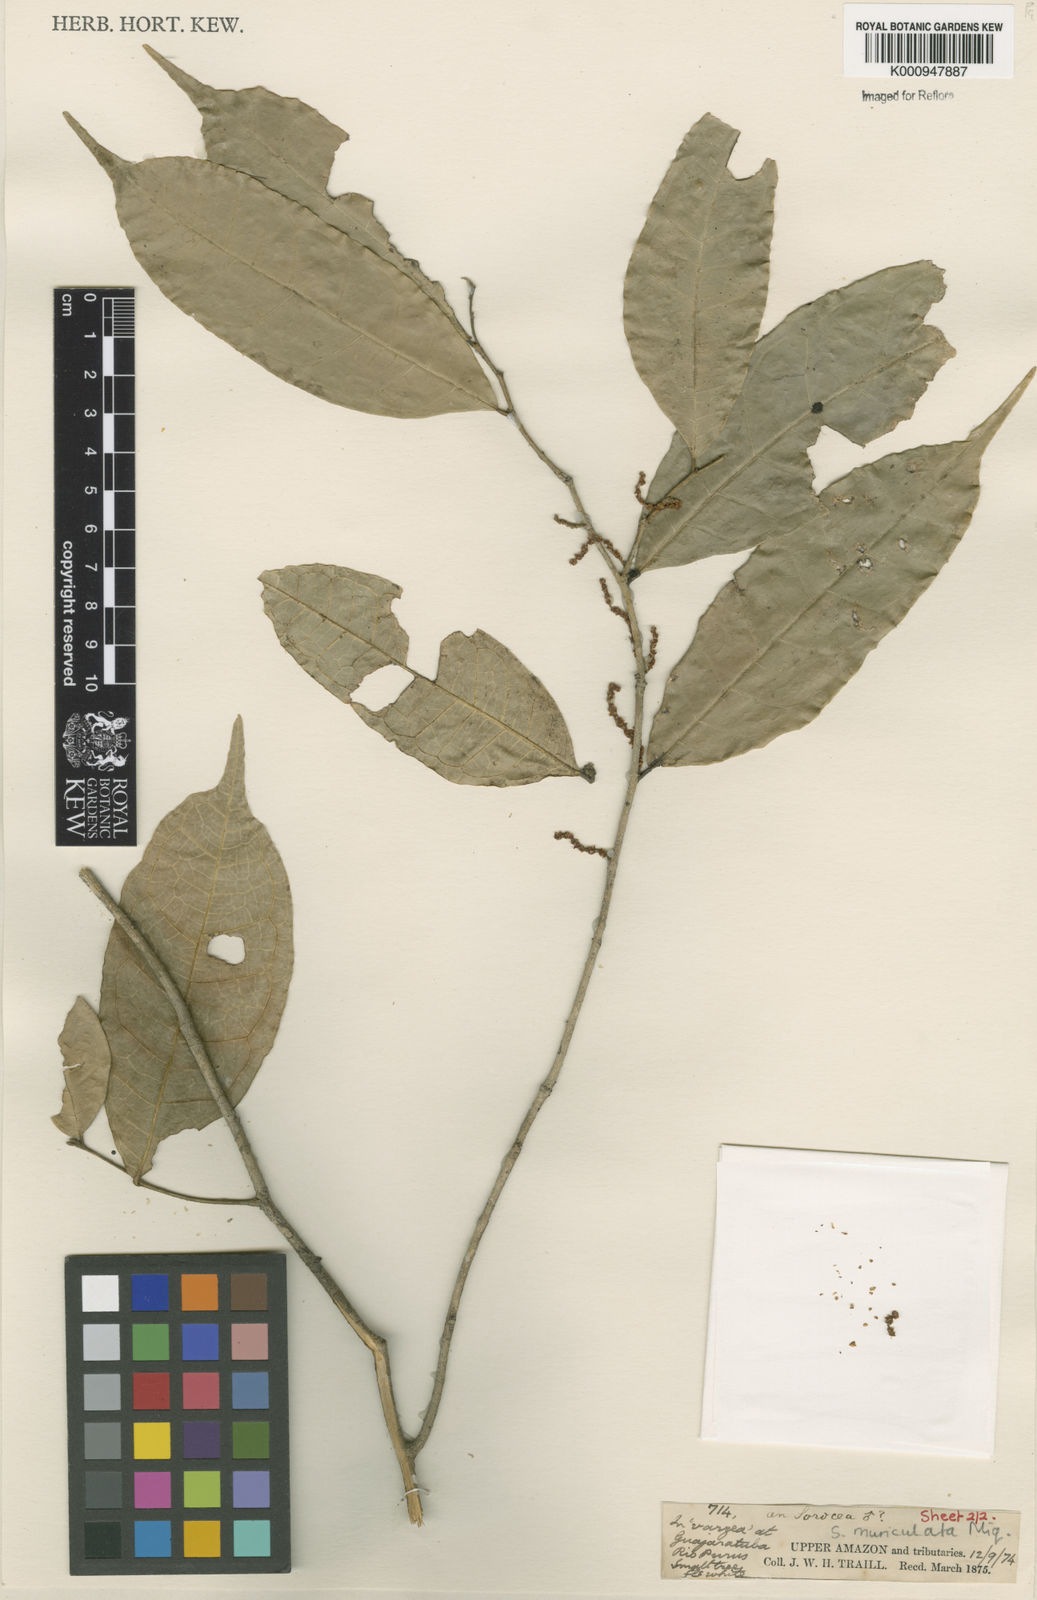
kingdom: Plantae
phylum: Tracheophyta
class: Magnoliopsida
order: Rosales
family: Moraceae
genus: Sorocea
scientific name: Sorocea muriculata
